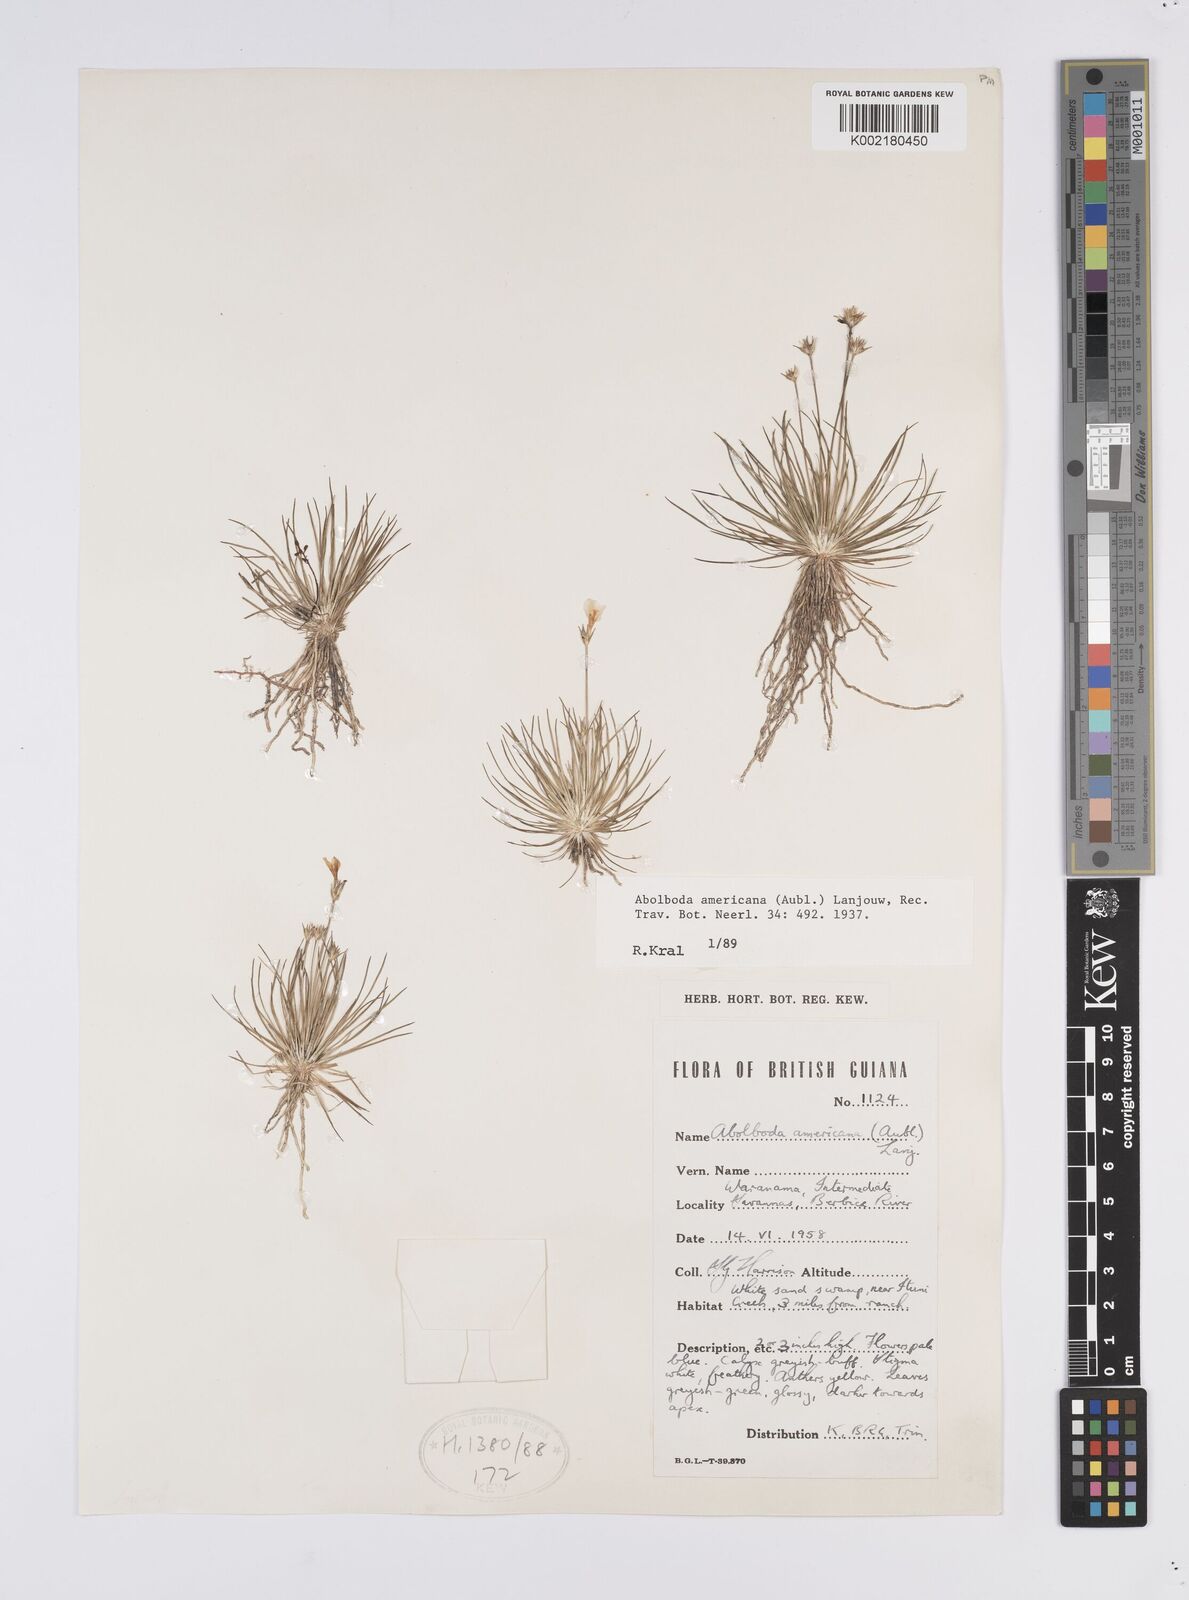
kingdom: Plantae
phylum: Tracheophyta
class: Liliopsida
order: Poales
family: Xyridaceae
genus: Abolboda
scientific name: Abolboda americana
